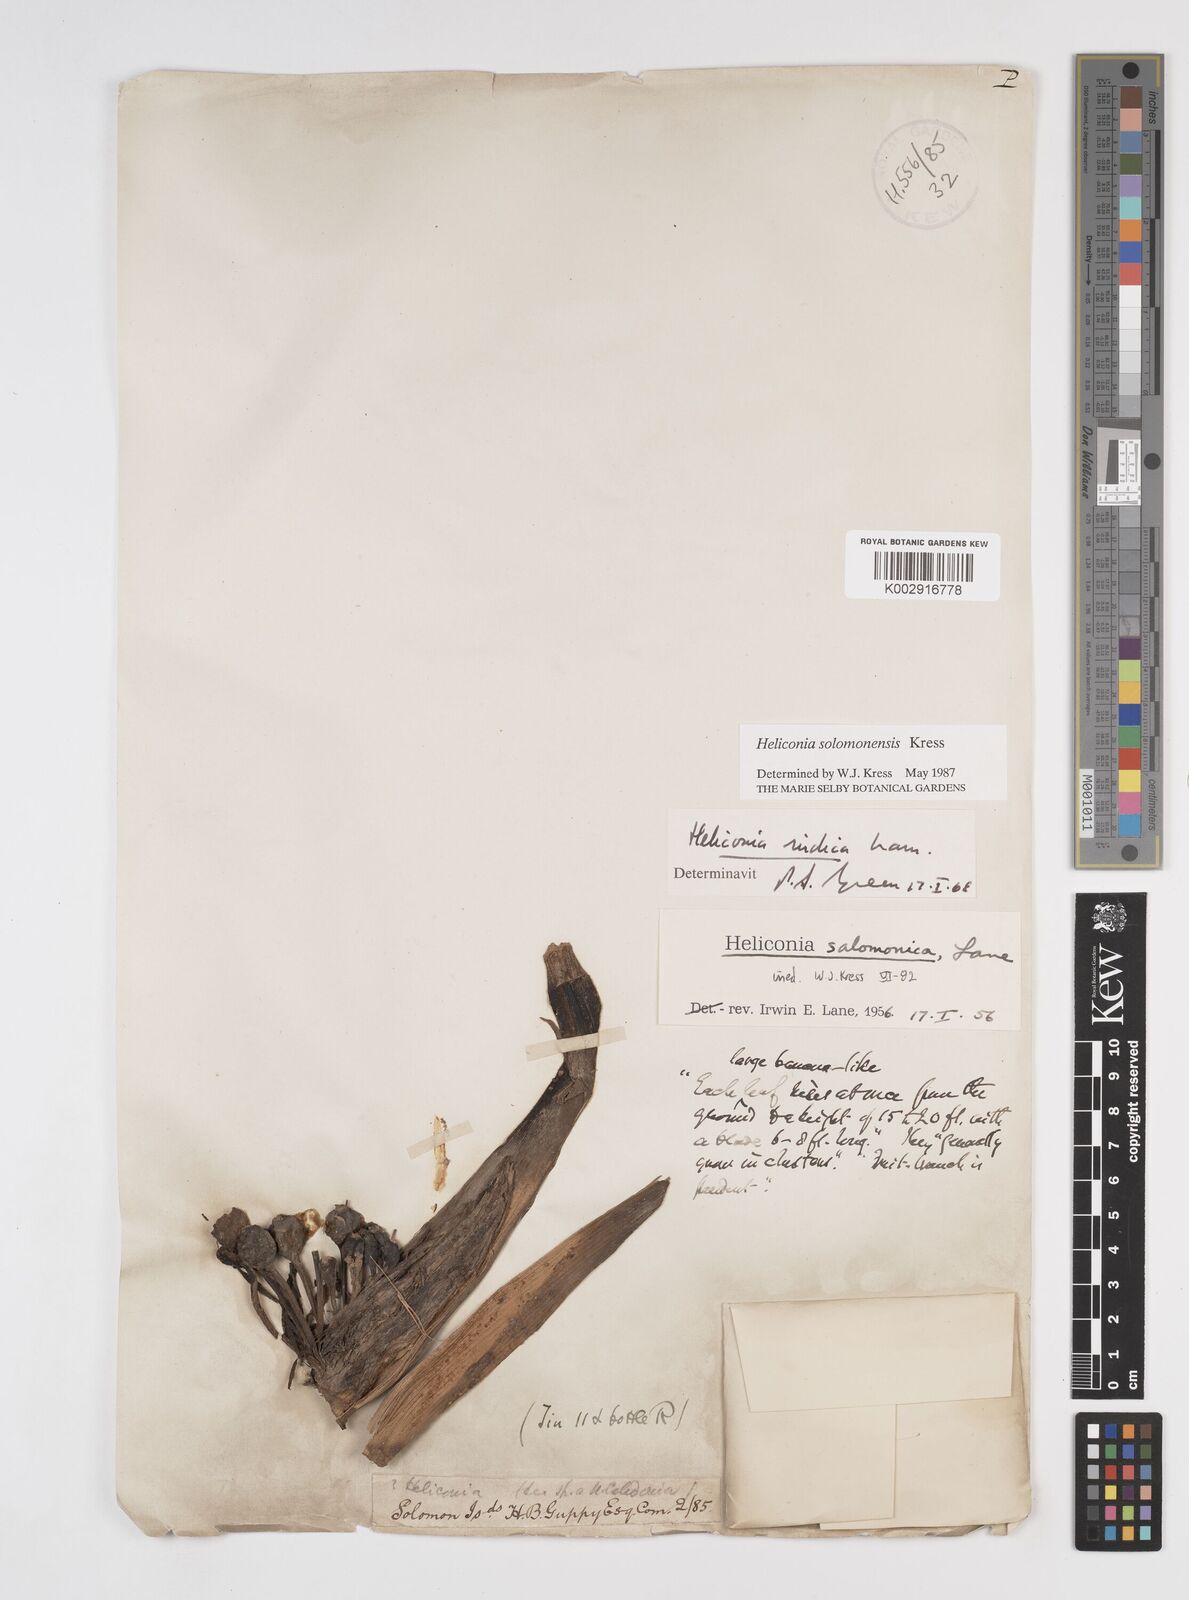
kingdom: Plantae
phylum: Tracheophyta
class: Liliopsida
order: Zingiberales
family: Heliconiaceae
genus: Heliconia
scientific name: Heliconia solomonensis
